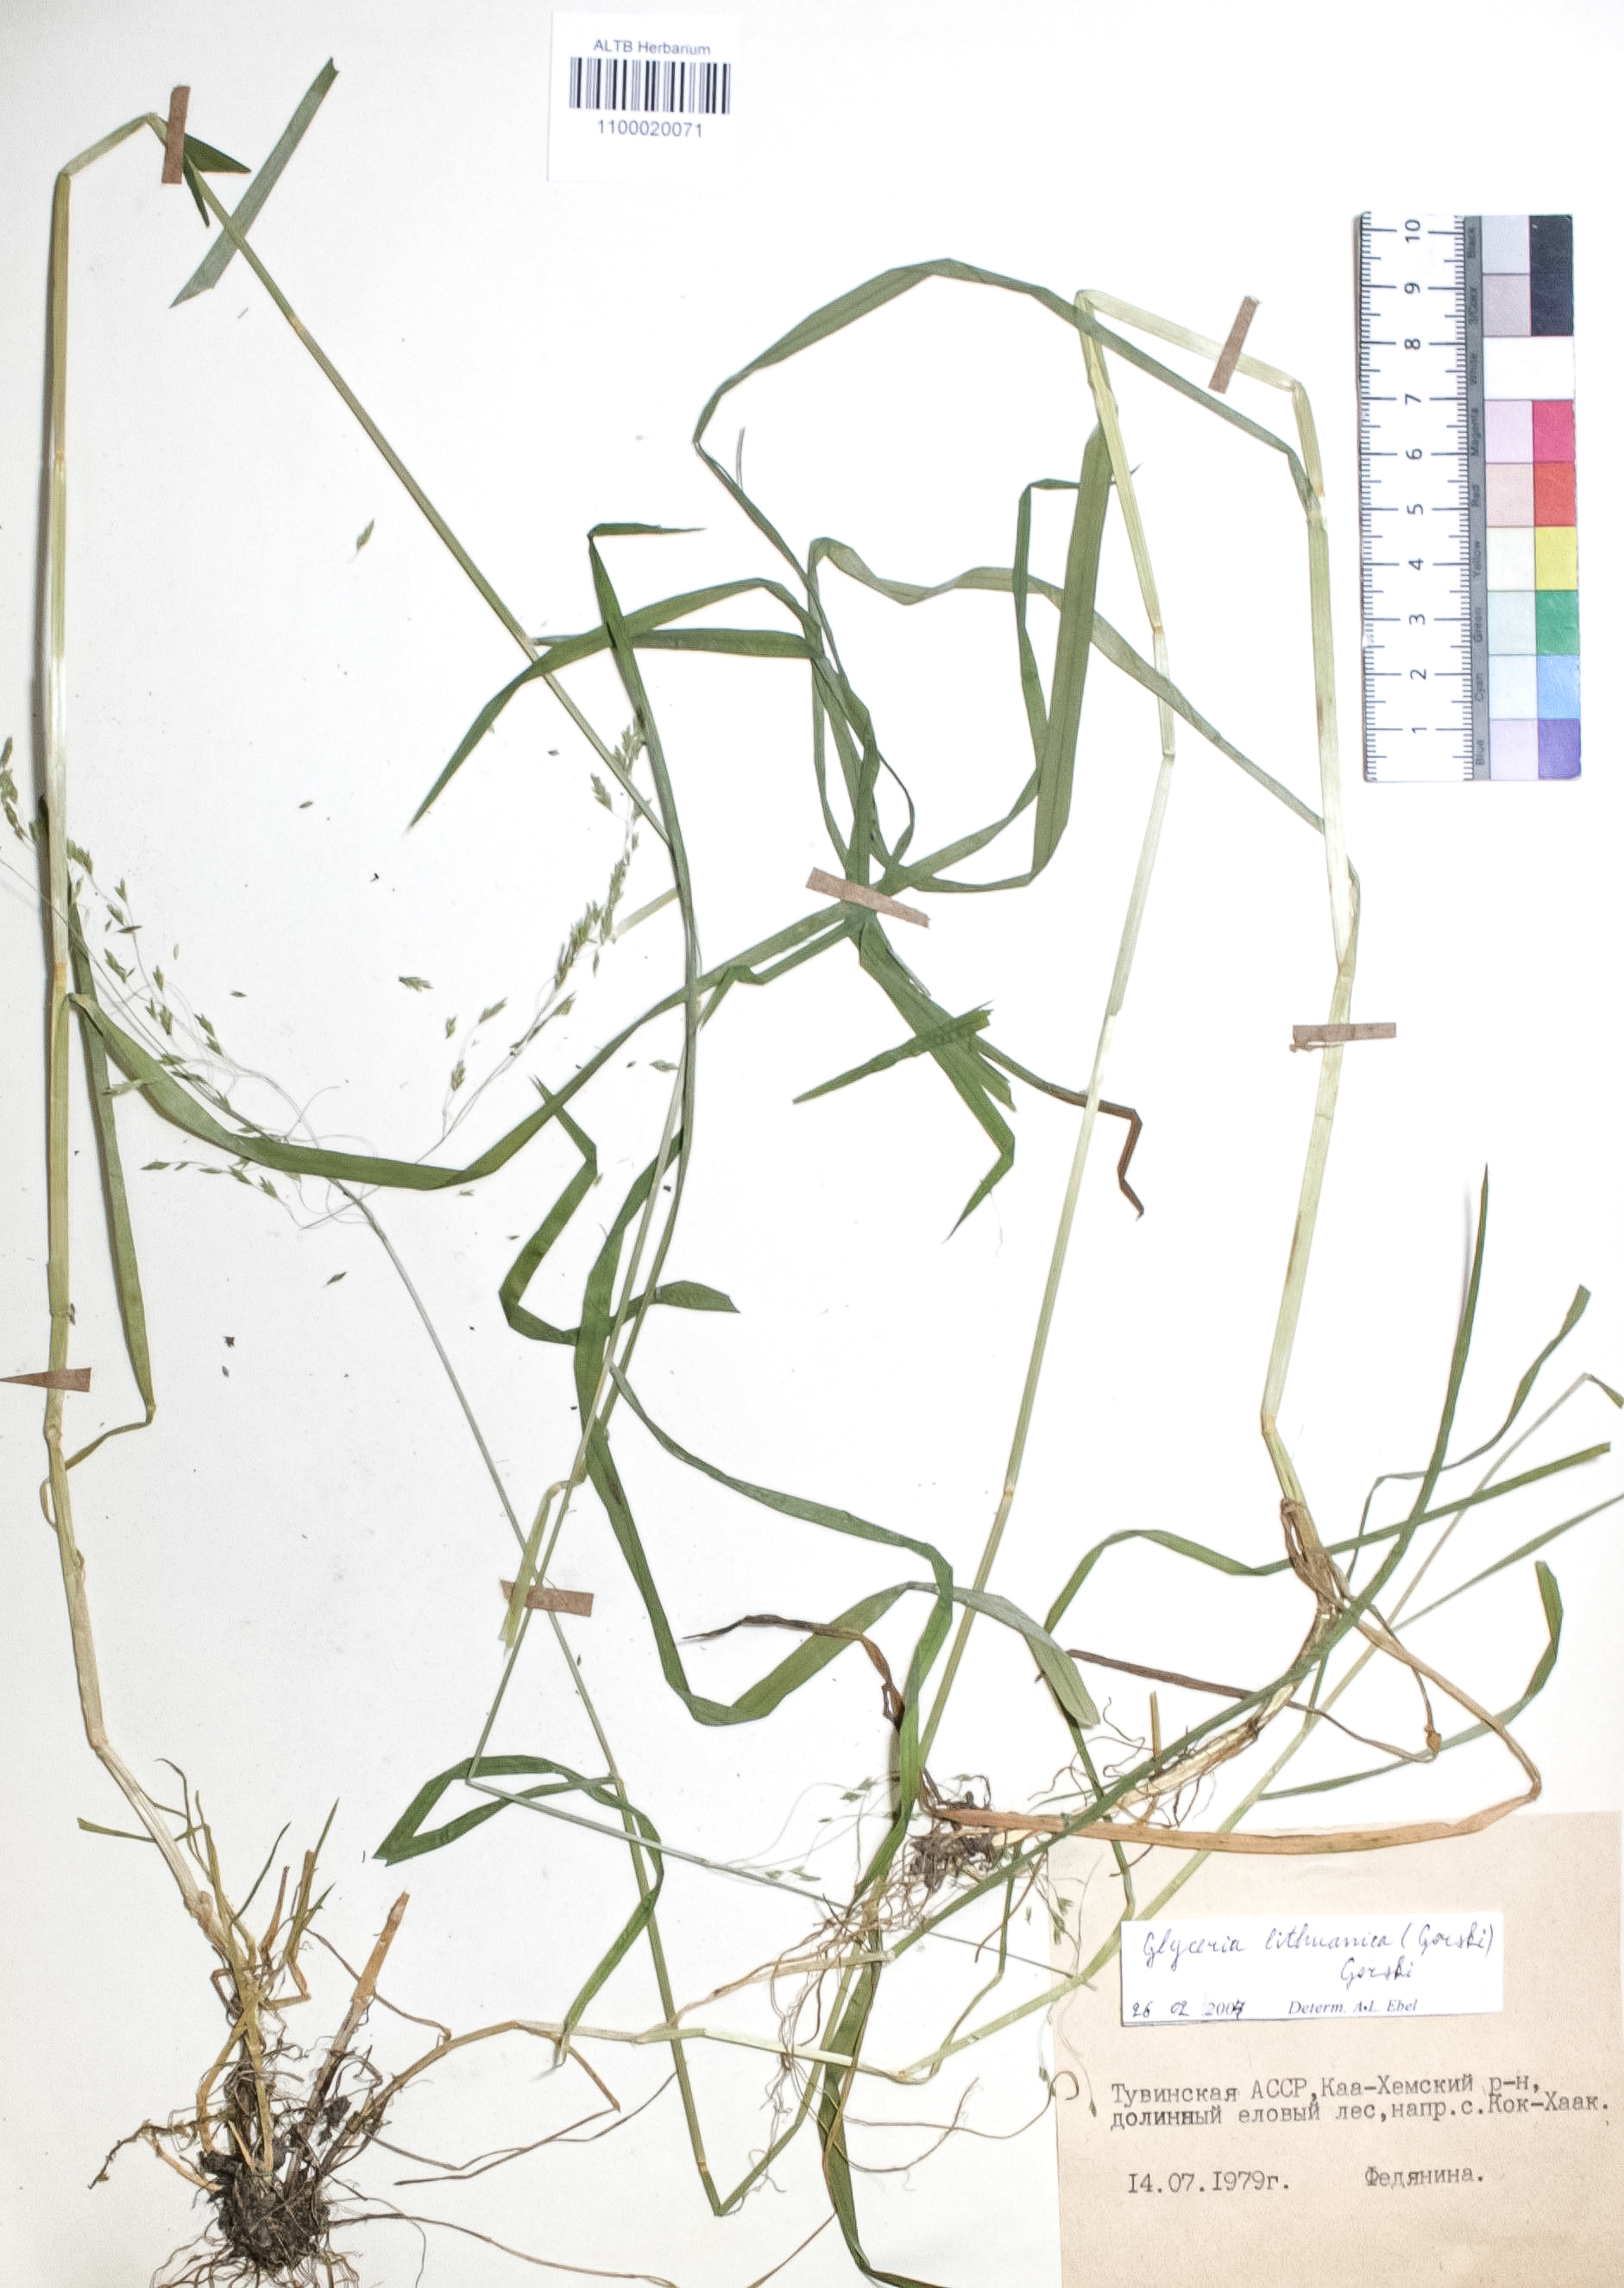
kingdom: Plantae
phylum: Tracheophyta
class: Liliopsida
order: Poales
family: Poaceae
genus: Glyceria
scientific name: Glyceria lithuanica
